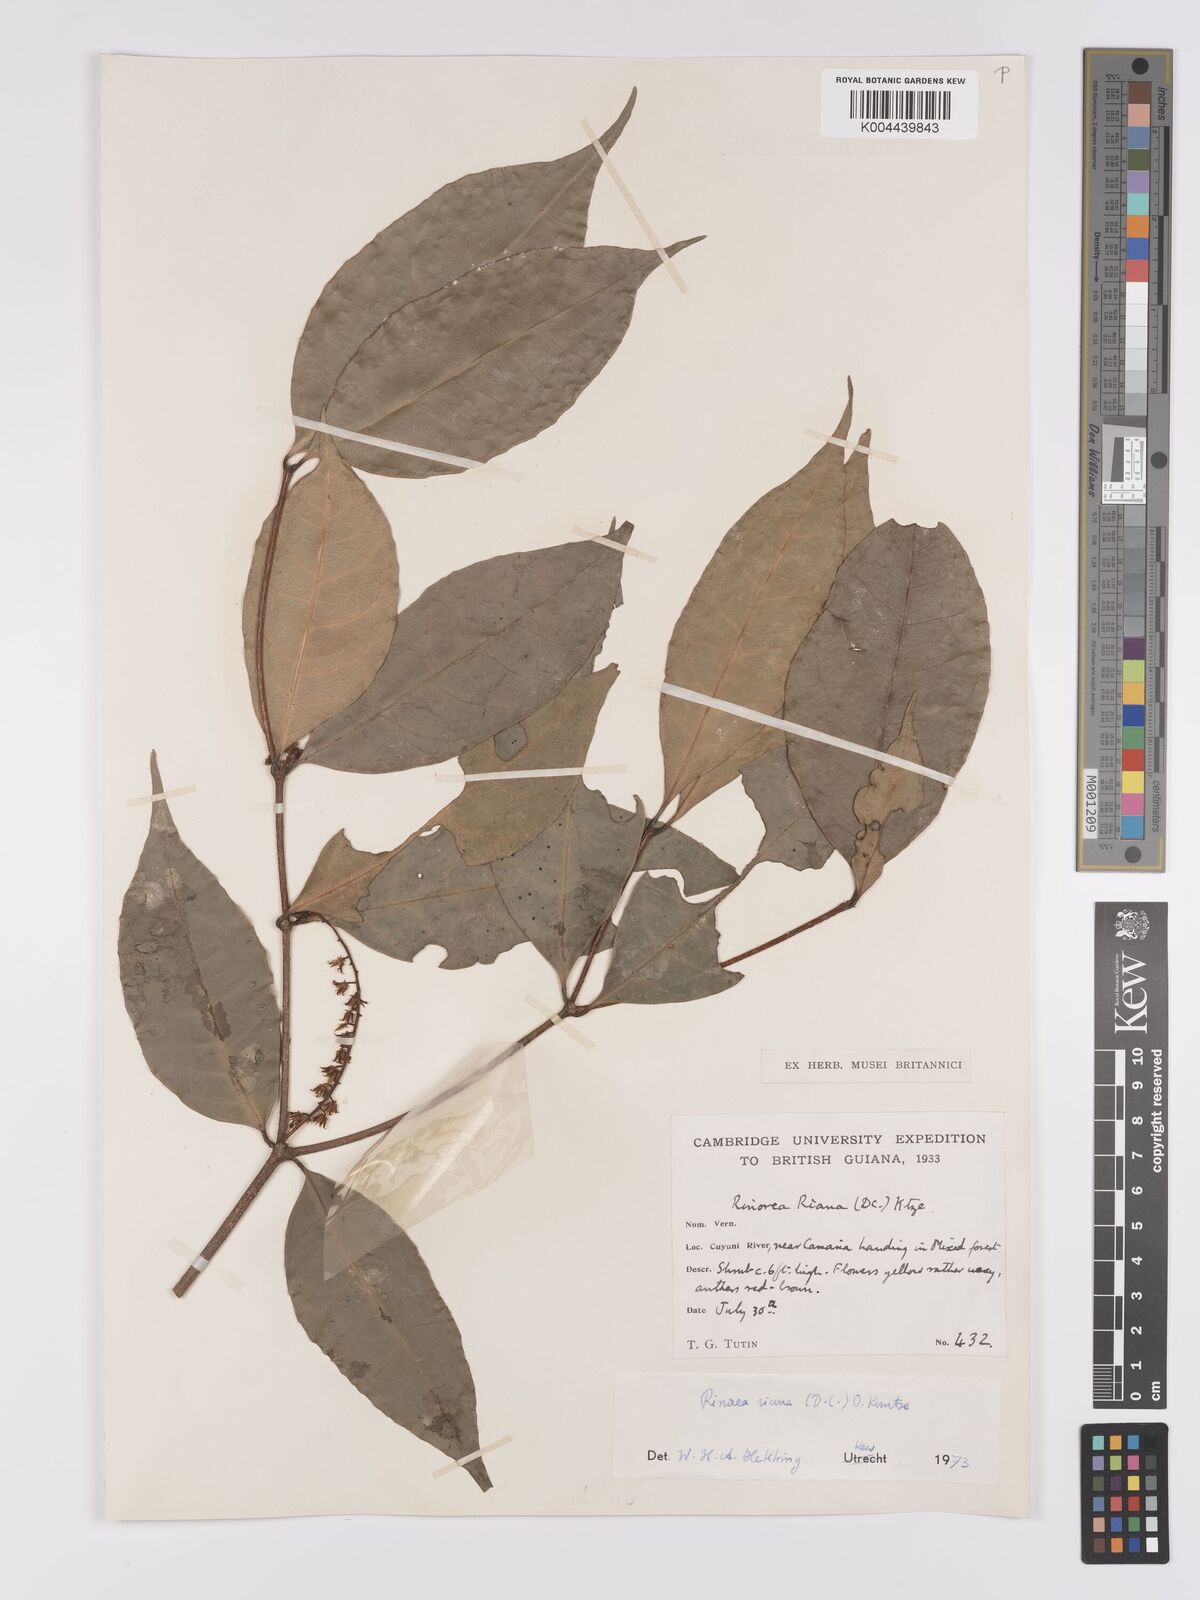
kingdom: Plantae
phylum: Tracheophyta
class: Magnoliopsida
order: Malpighiales
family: Violaceae
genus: Rinorea
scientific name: Rinorea riana
